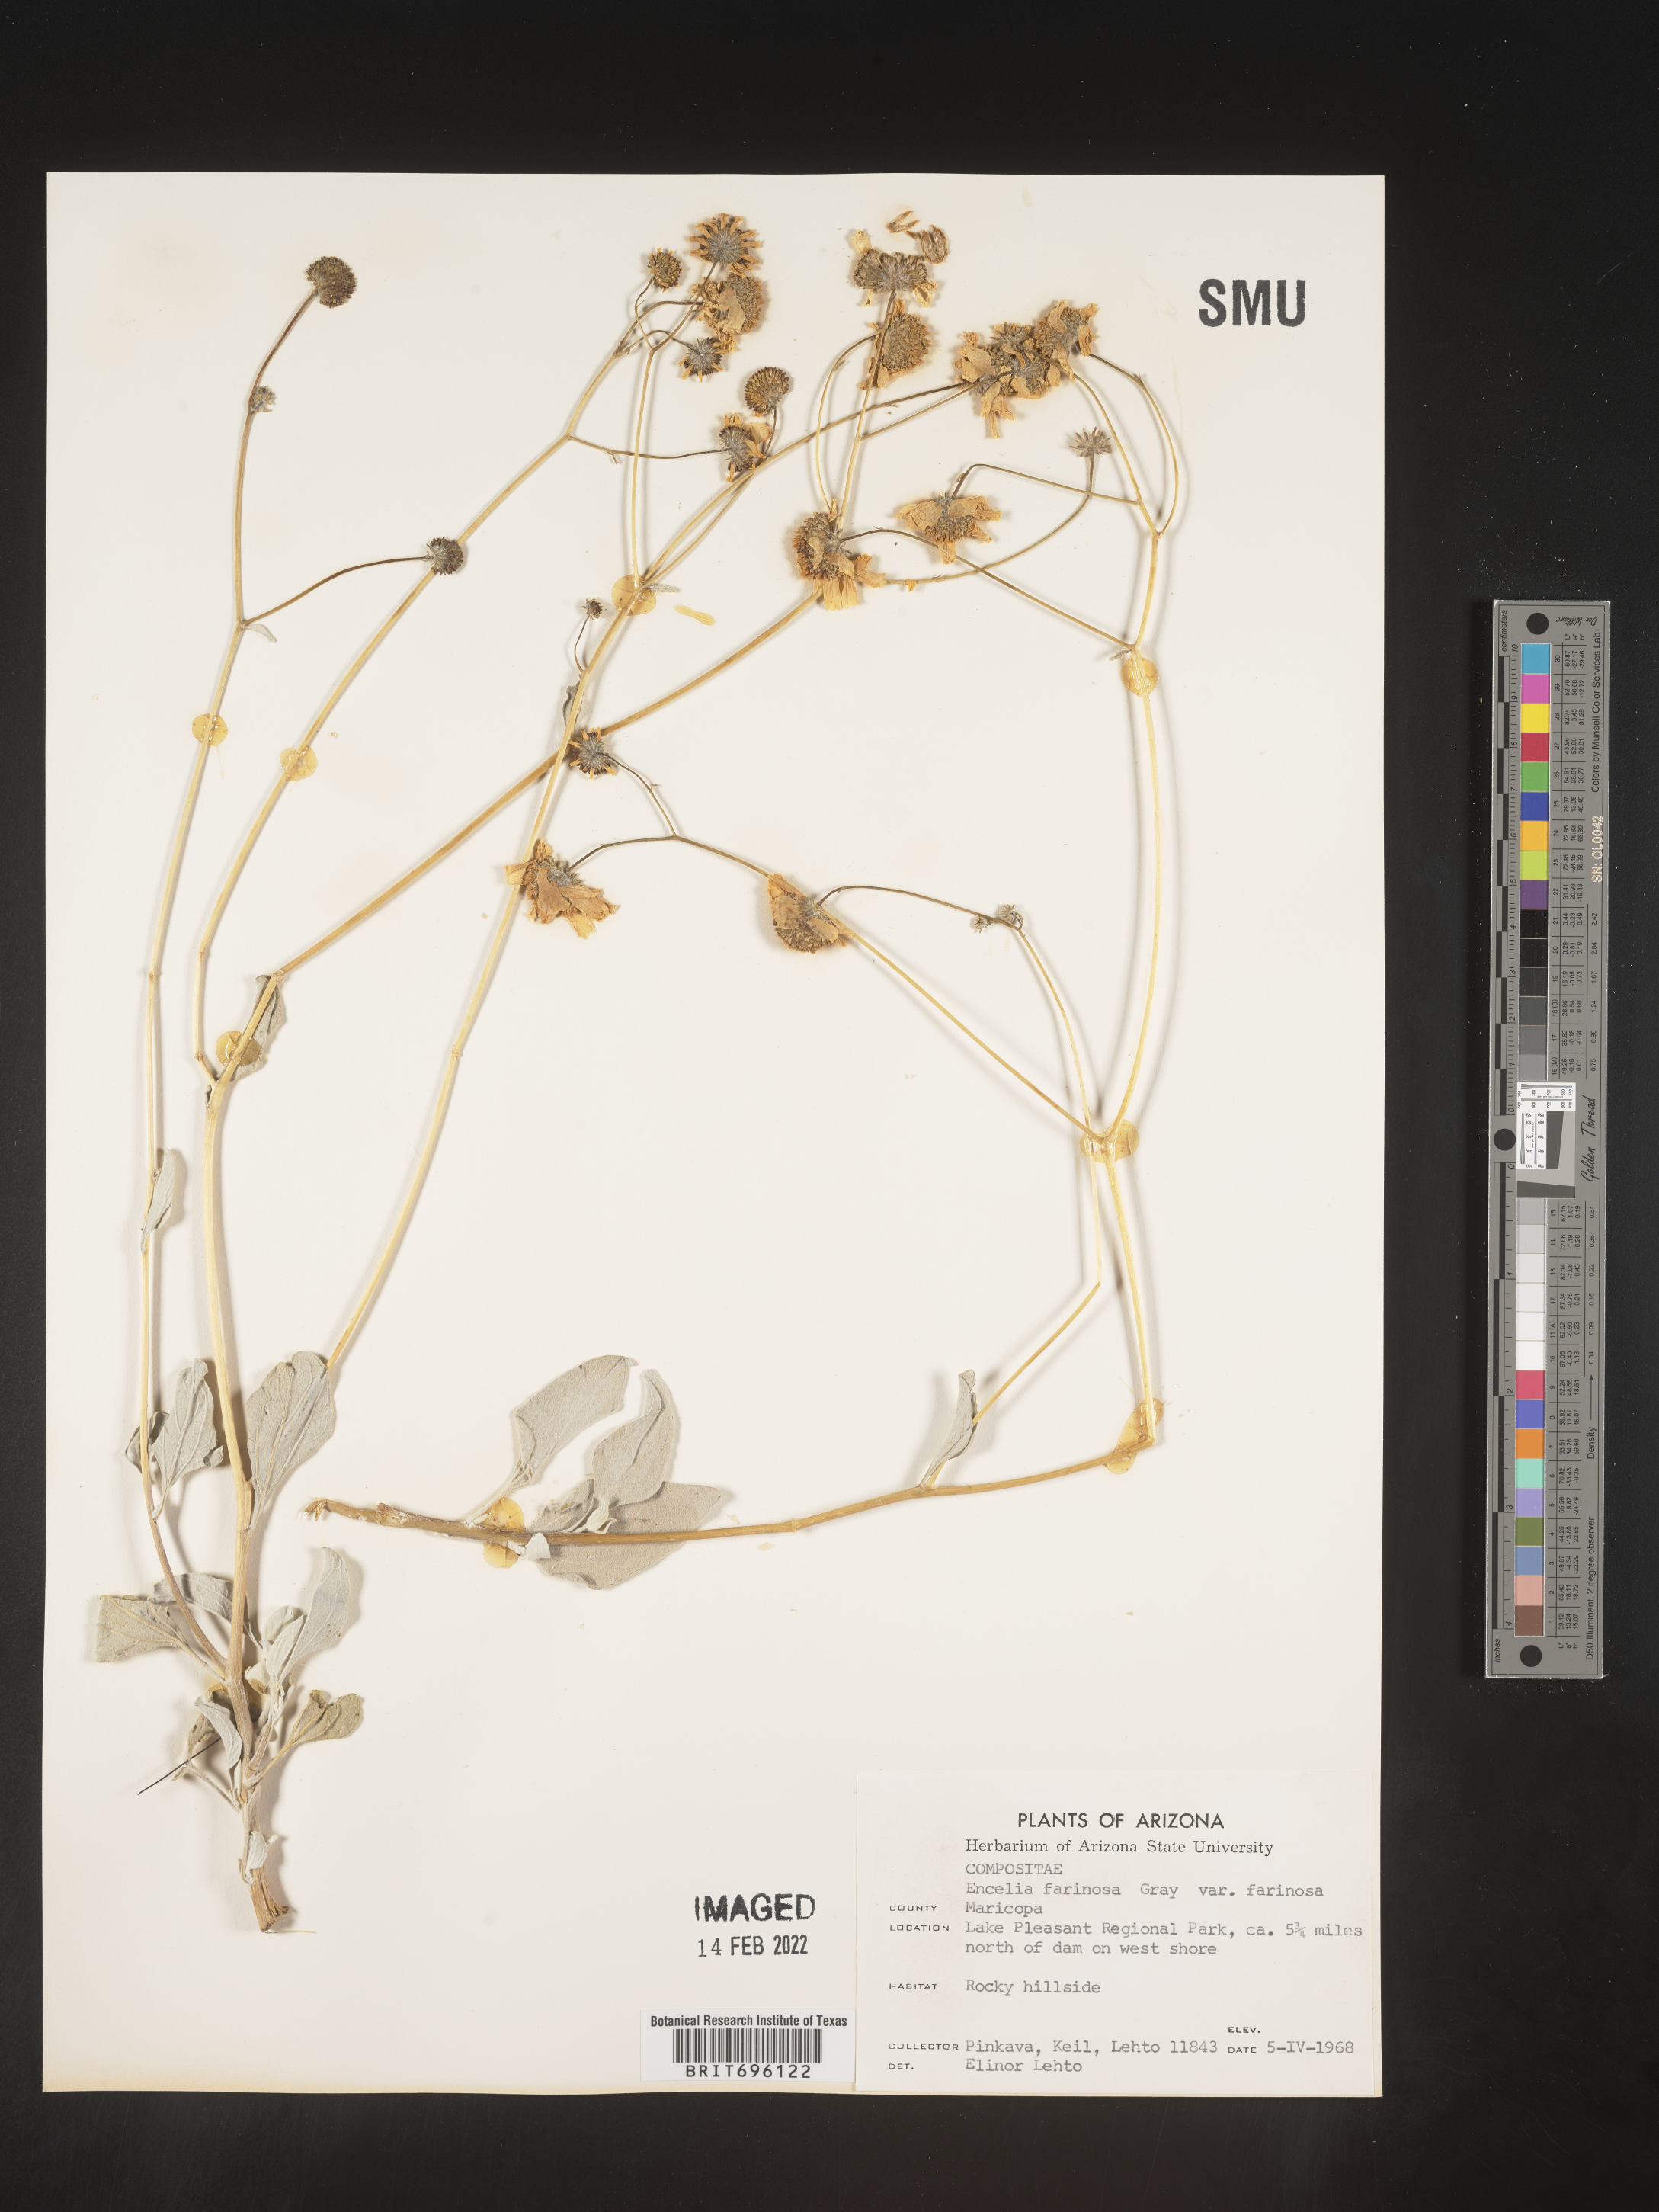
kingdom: Plantae
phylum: Tracheophyta
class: Magnoliopsida
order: Asterales
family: Asteraceae
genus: Encelia
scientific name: Encelia farinosa
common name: Brittlebush
